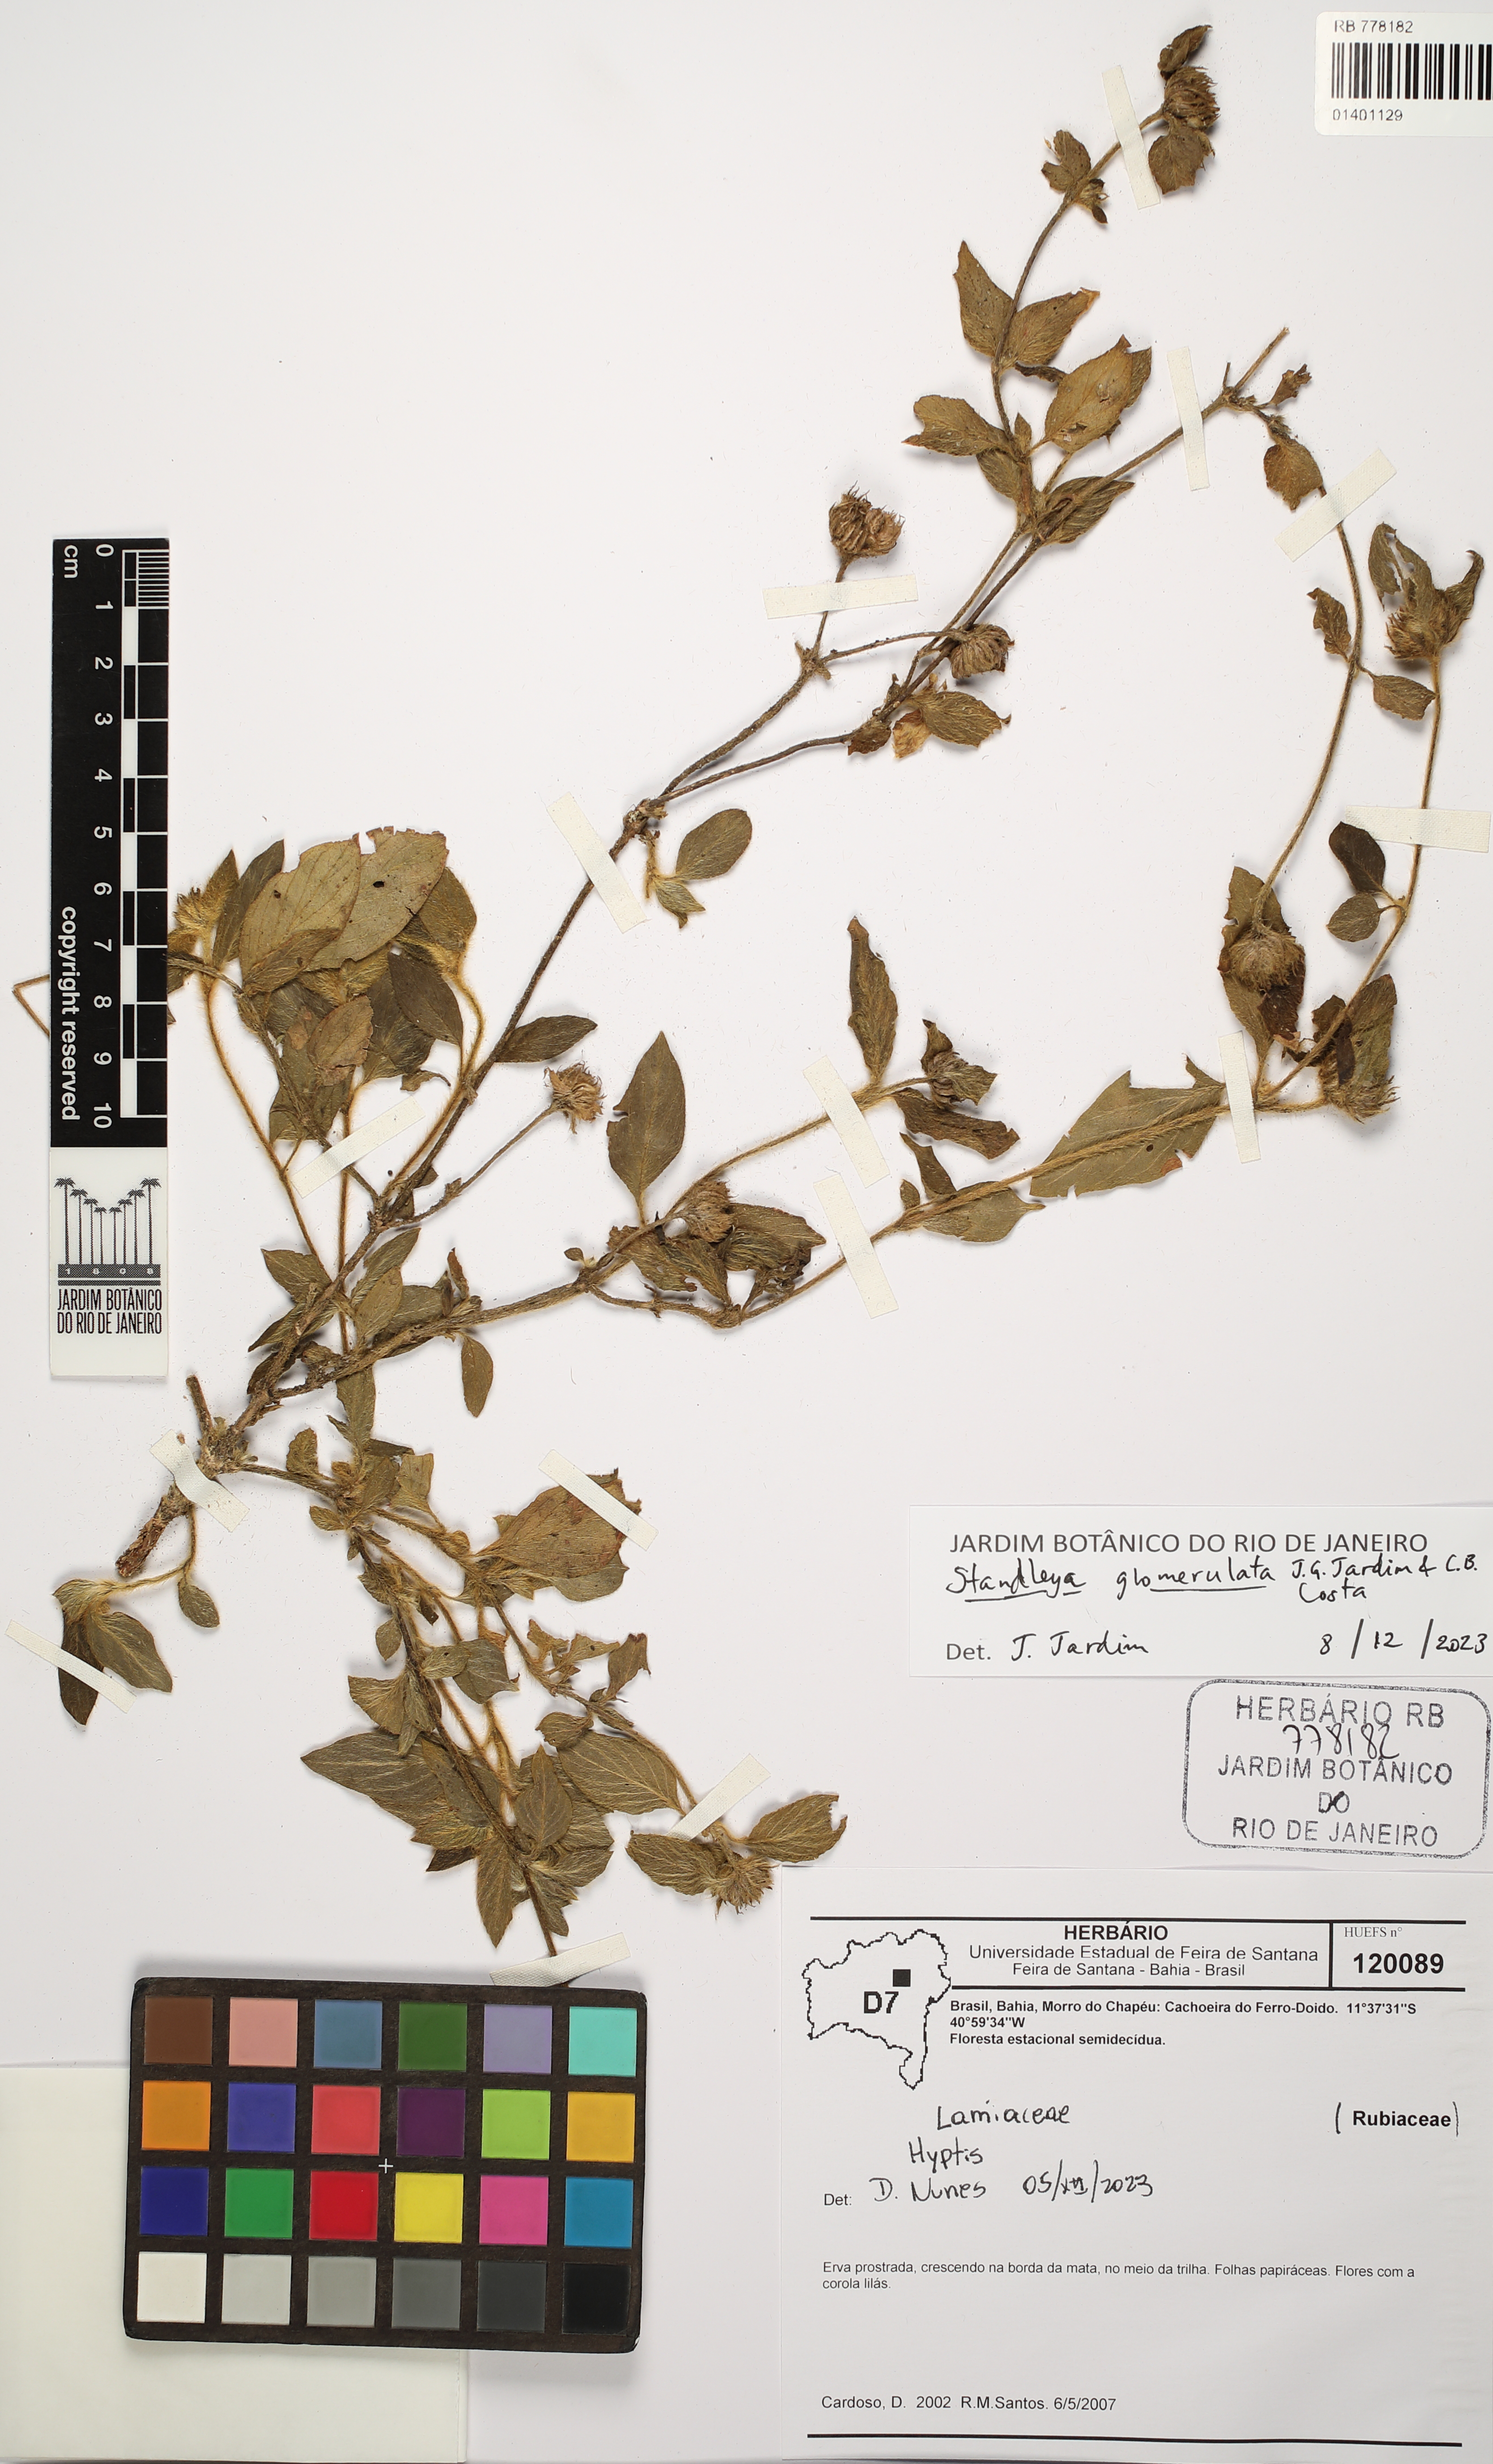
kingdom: Plantae
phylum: Tracheophyta
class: Magnoliopsida
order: Gentianales
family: Rubiaceae
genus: Standleya
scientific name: Standleya glomerulata
